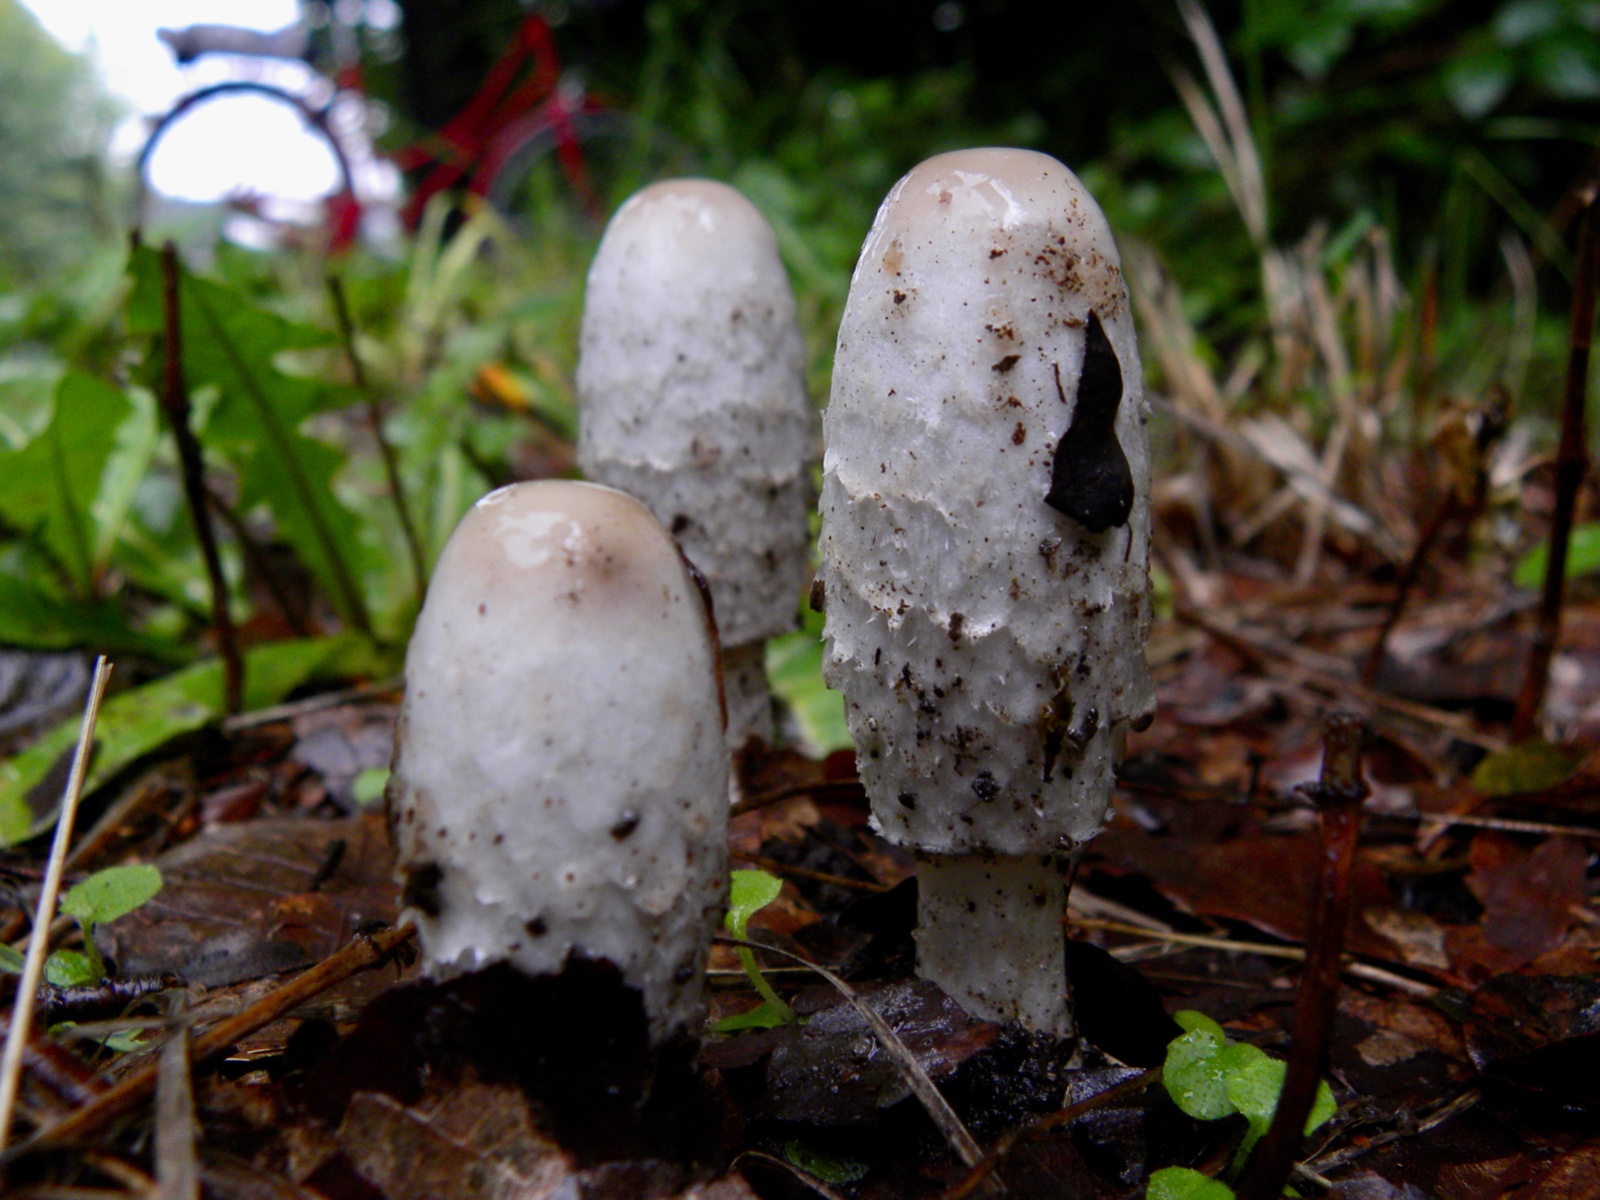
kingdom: Fungi
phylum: Basidiomycota
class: Agaricomycetes
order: Agaricales
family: Agaricaceae
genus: Coprinus
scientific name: Coprinus comatus
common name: stor parykhat
